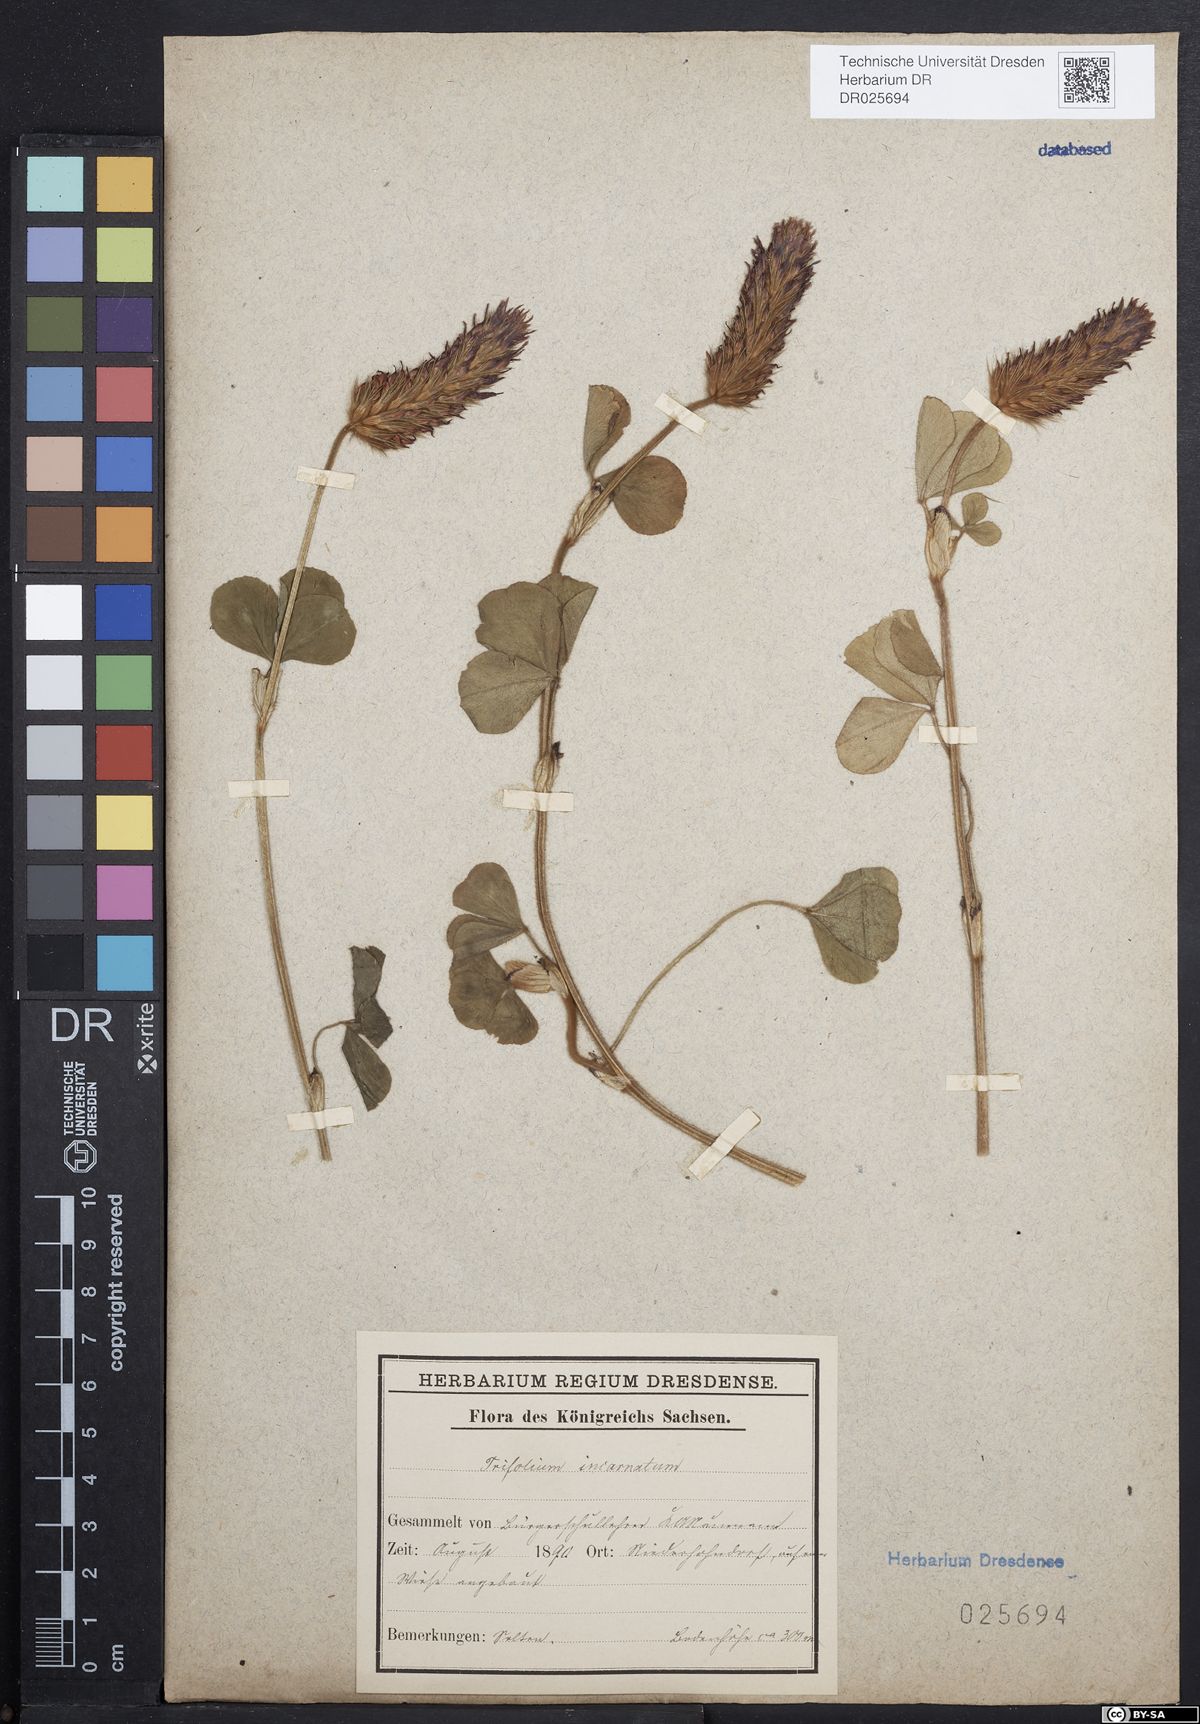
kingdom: Plantae
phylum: Tracheophyta
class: Magnoliopsida
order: Fabales
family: Fabaceae
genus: Trifolium
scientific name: Trifolium incarnatum
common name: Crimson clover
